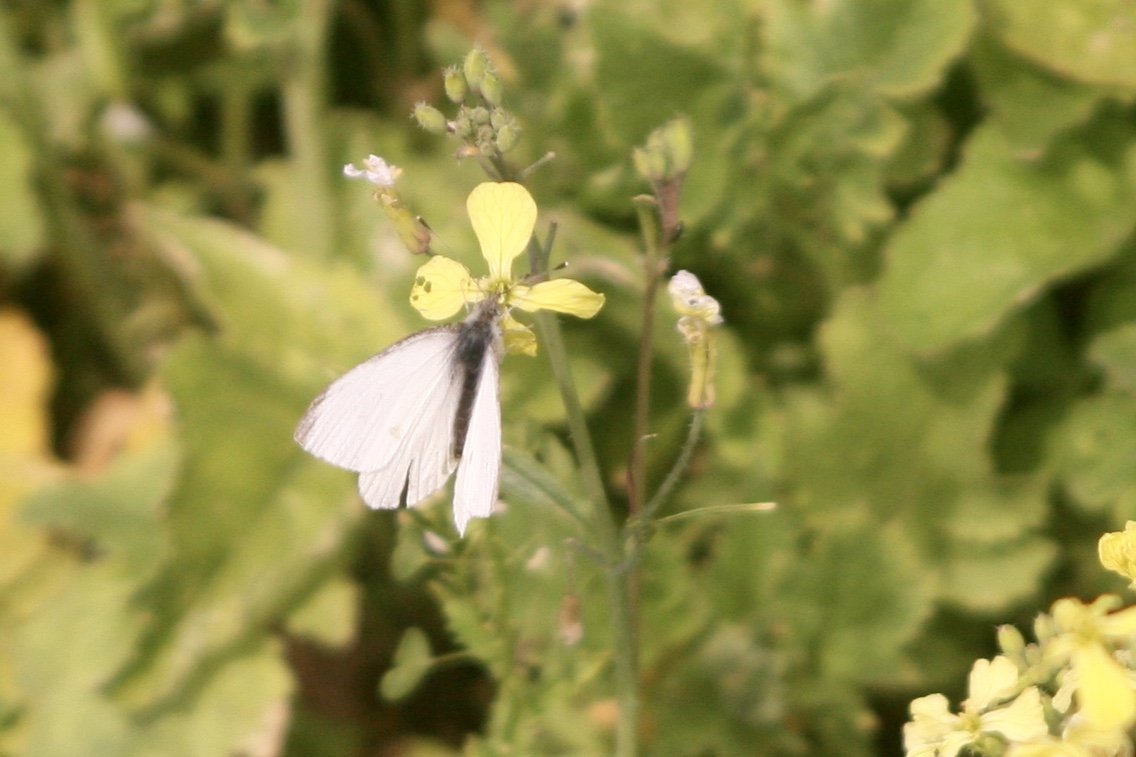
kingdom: Animalia
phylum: Arthropoda
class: Insecta
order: Lepidoptera
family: Pieridae
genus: Pieris
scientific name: Pieris rapae
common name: Cabbage White
